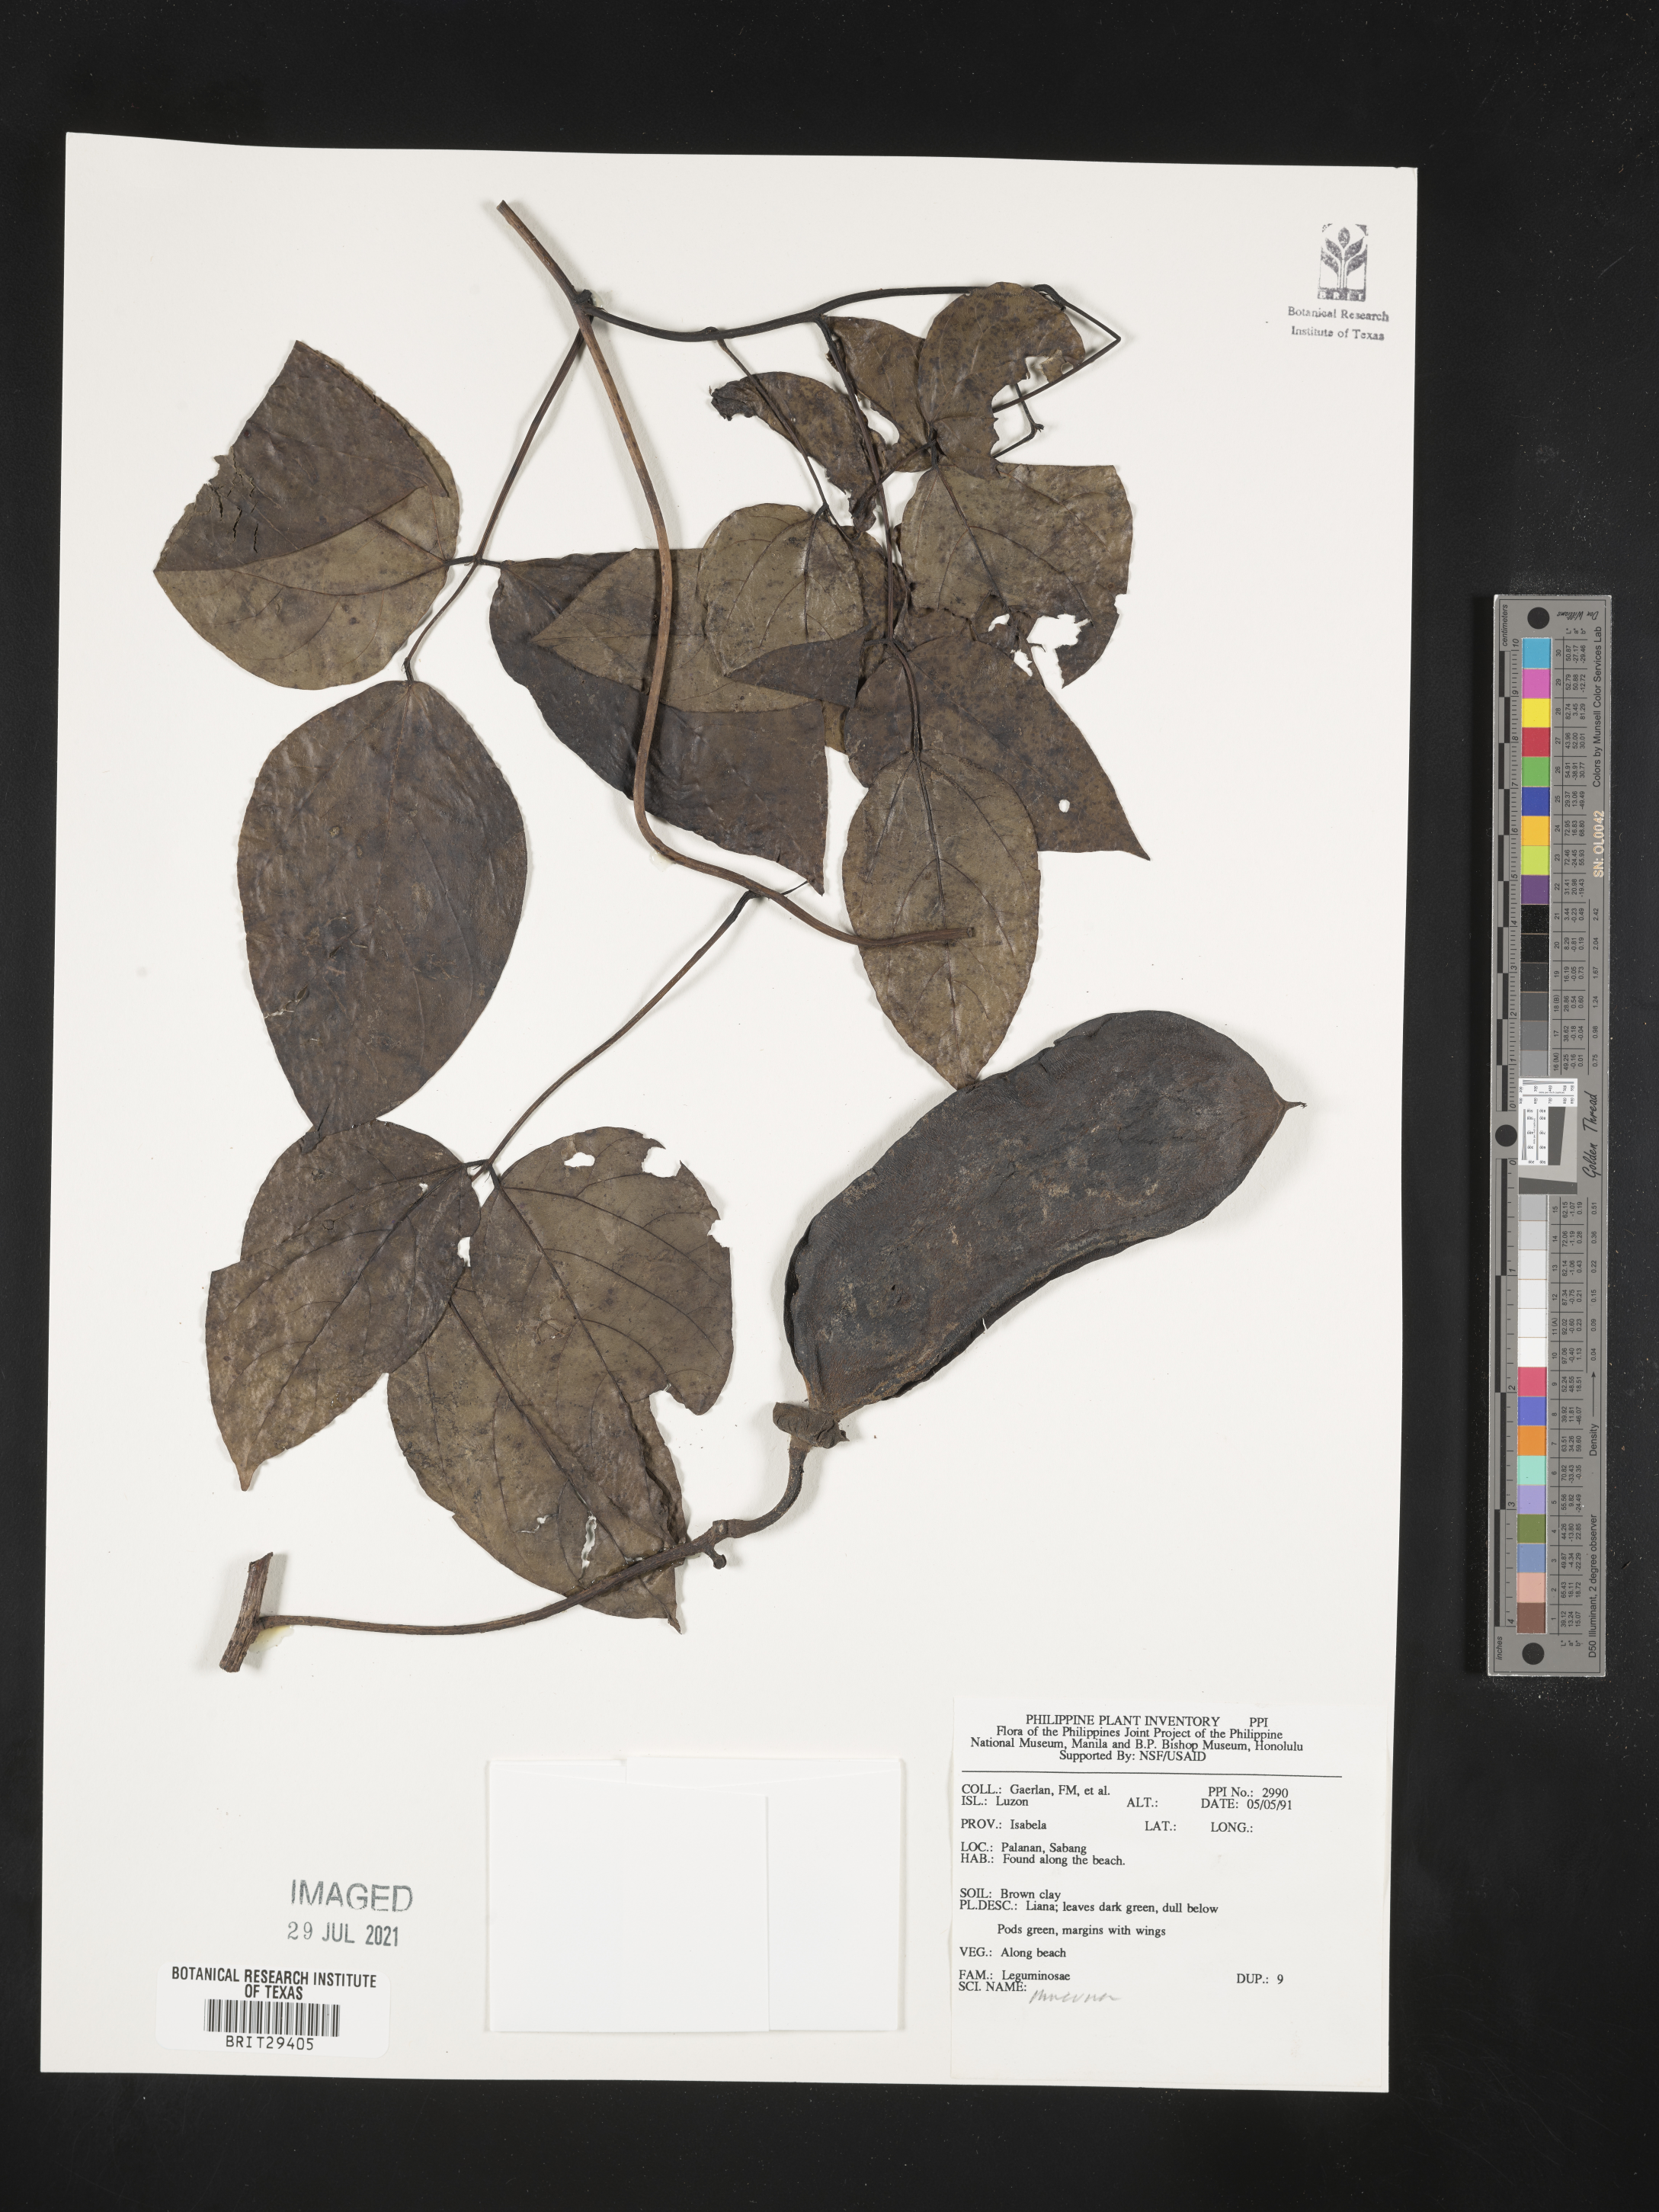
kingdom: Plantae
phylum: Tracheophyta
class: Magnoliopsida
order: Fabales
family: Fabaceae
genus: Mucuna
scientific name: Mucuna
